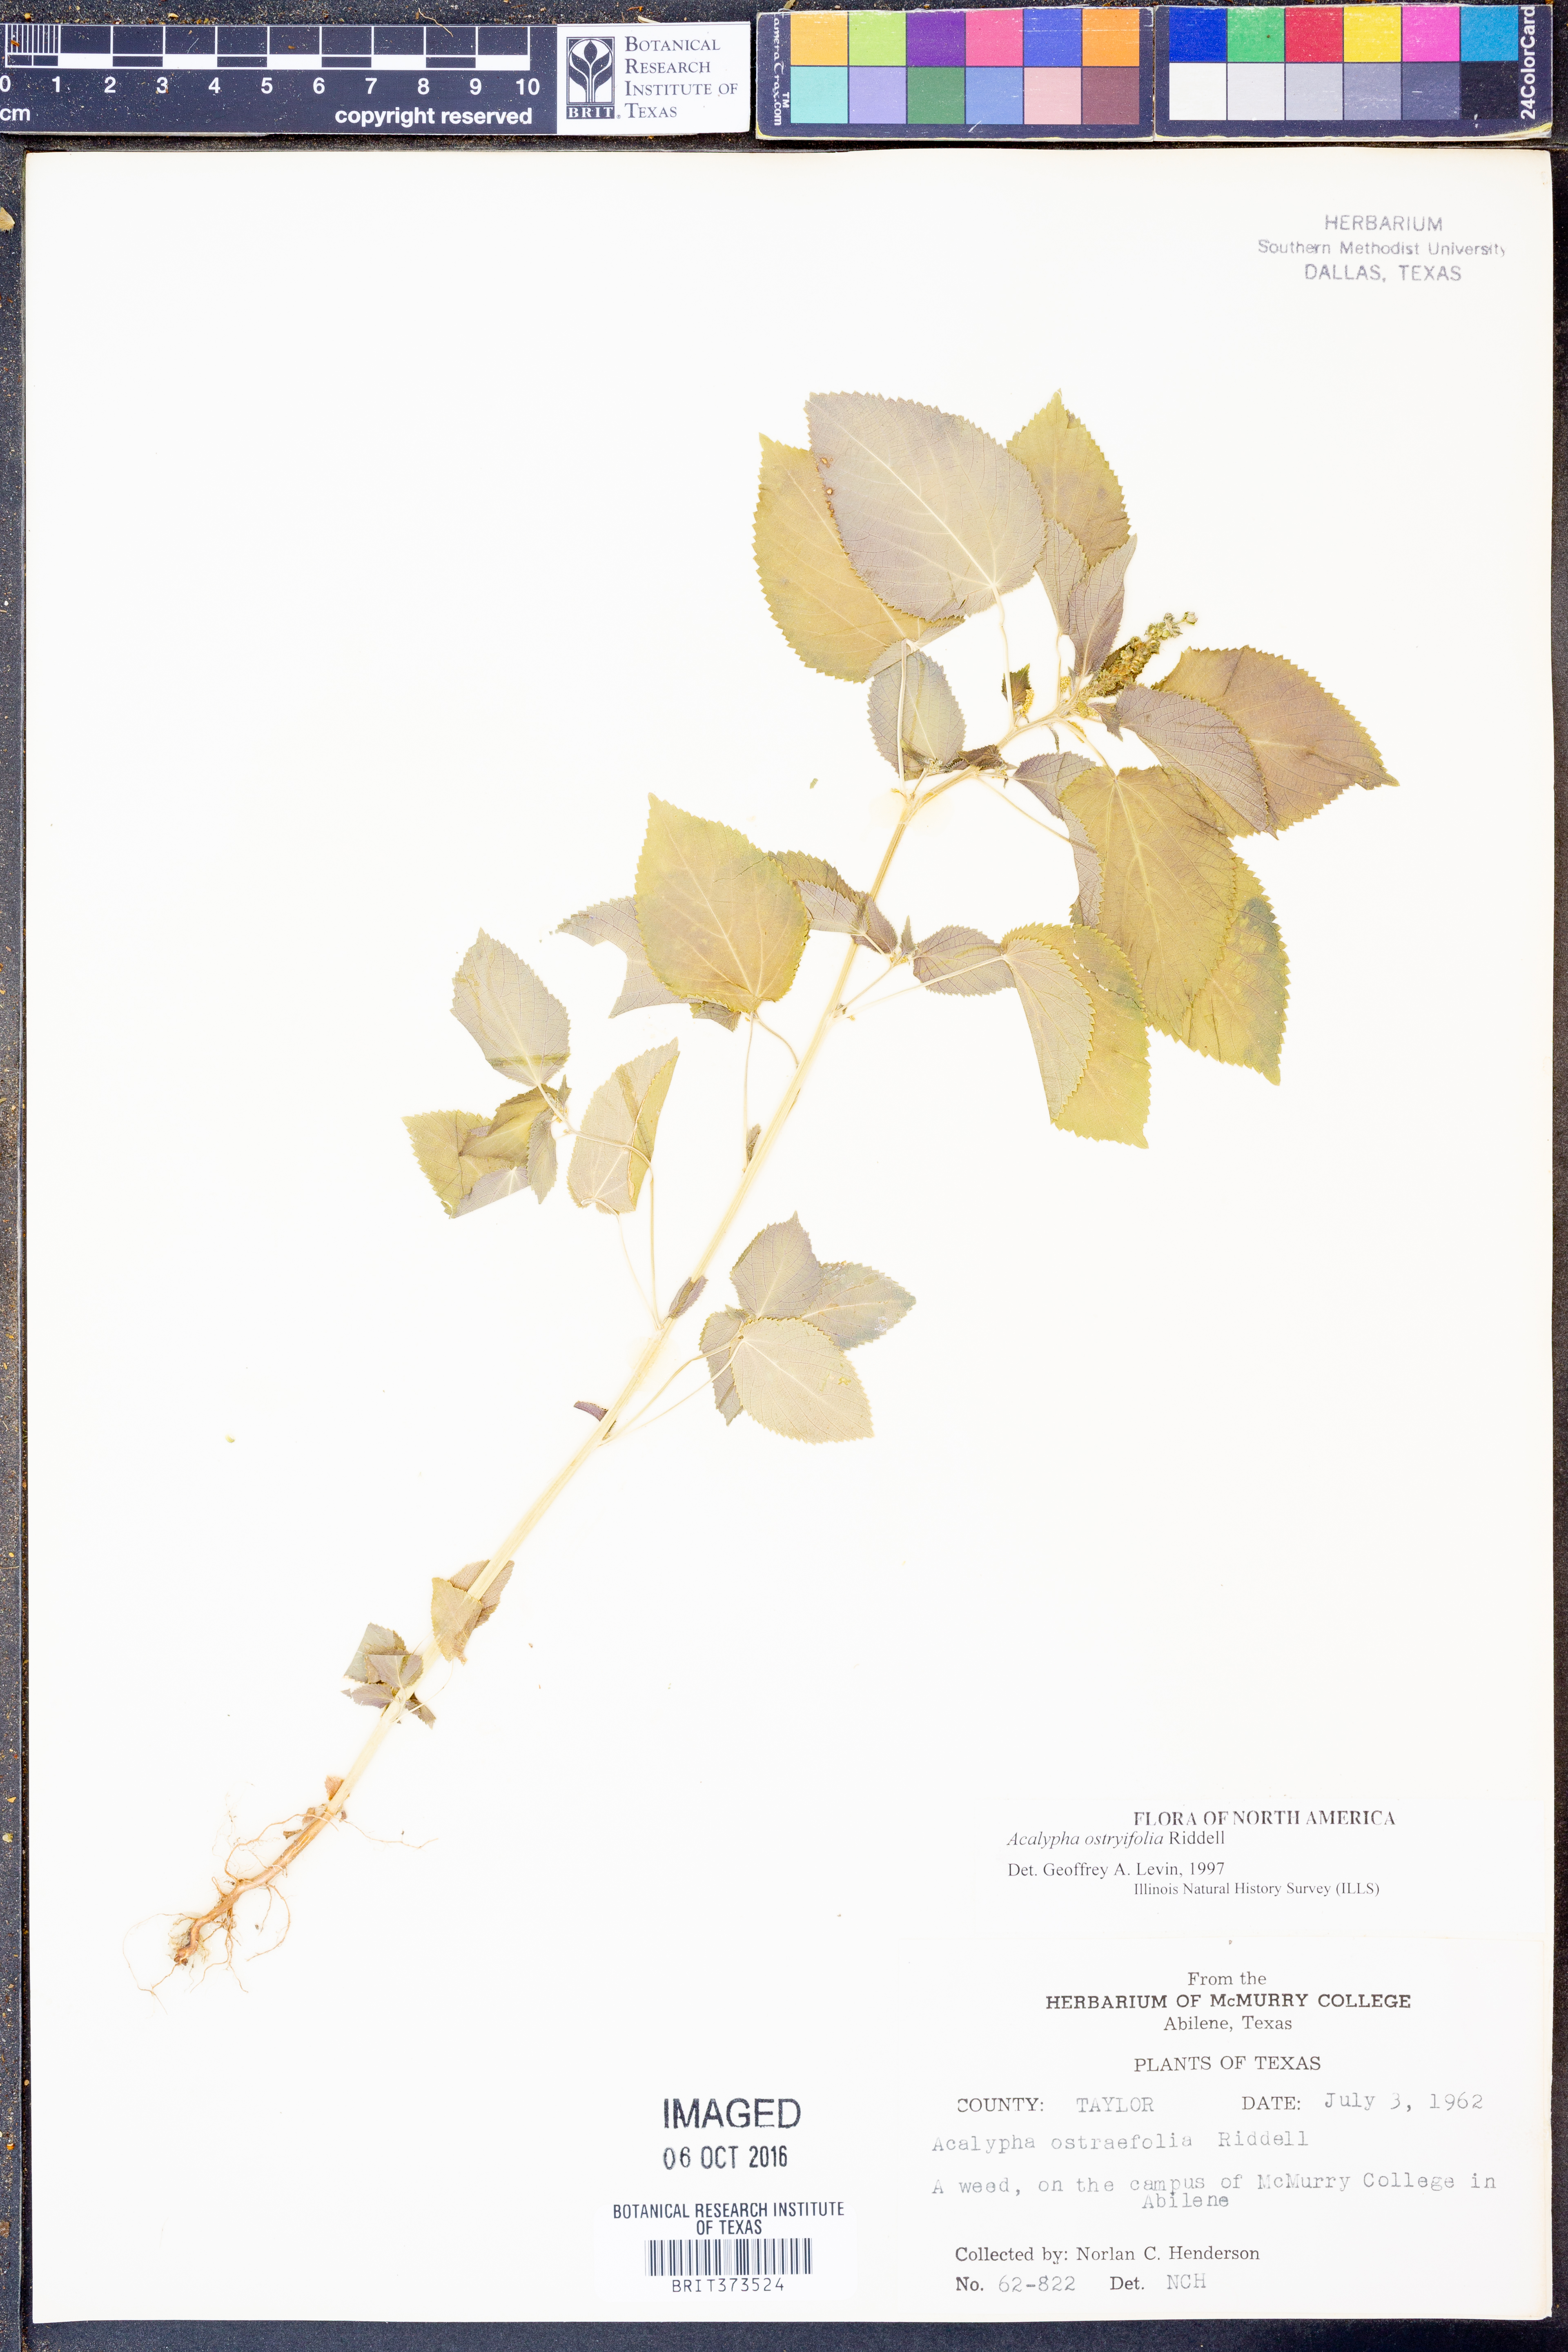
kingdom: Plantae
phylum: Tracheophyta
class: Magnoliopsida
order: Malpighiales
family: Euphorbiaceae
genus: Acalypha
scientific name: Acalypha persimilis
